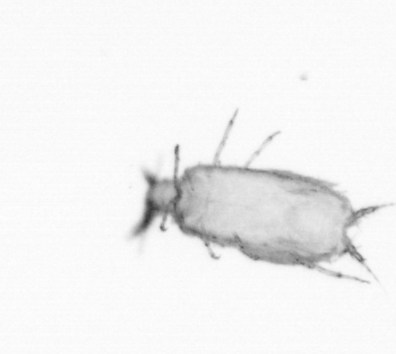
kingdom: Animalia
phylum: Arthropoda
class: Copepoda
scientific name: Copepoda
